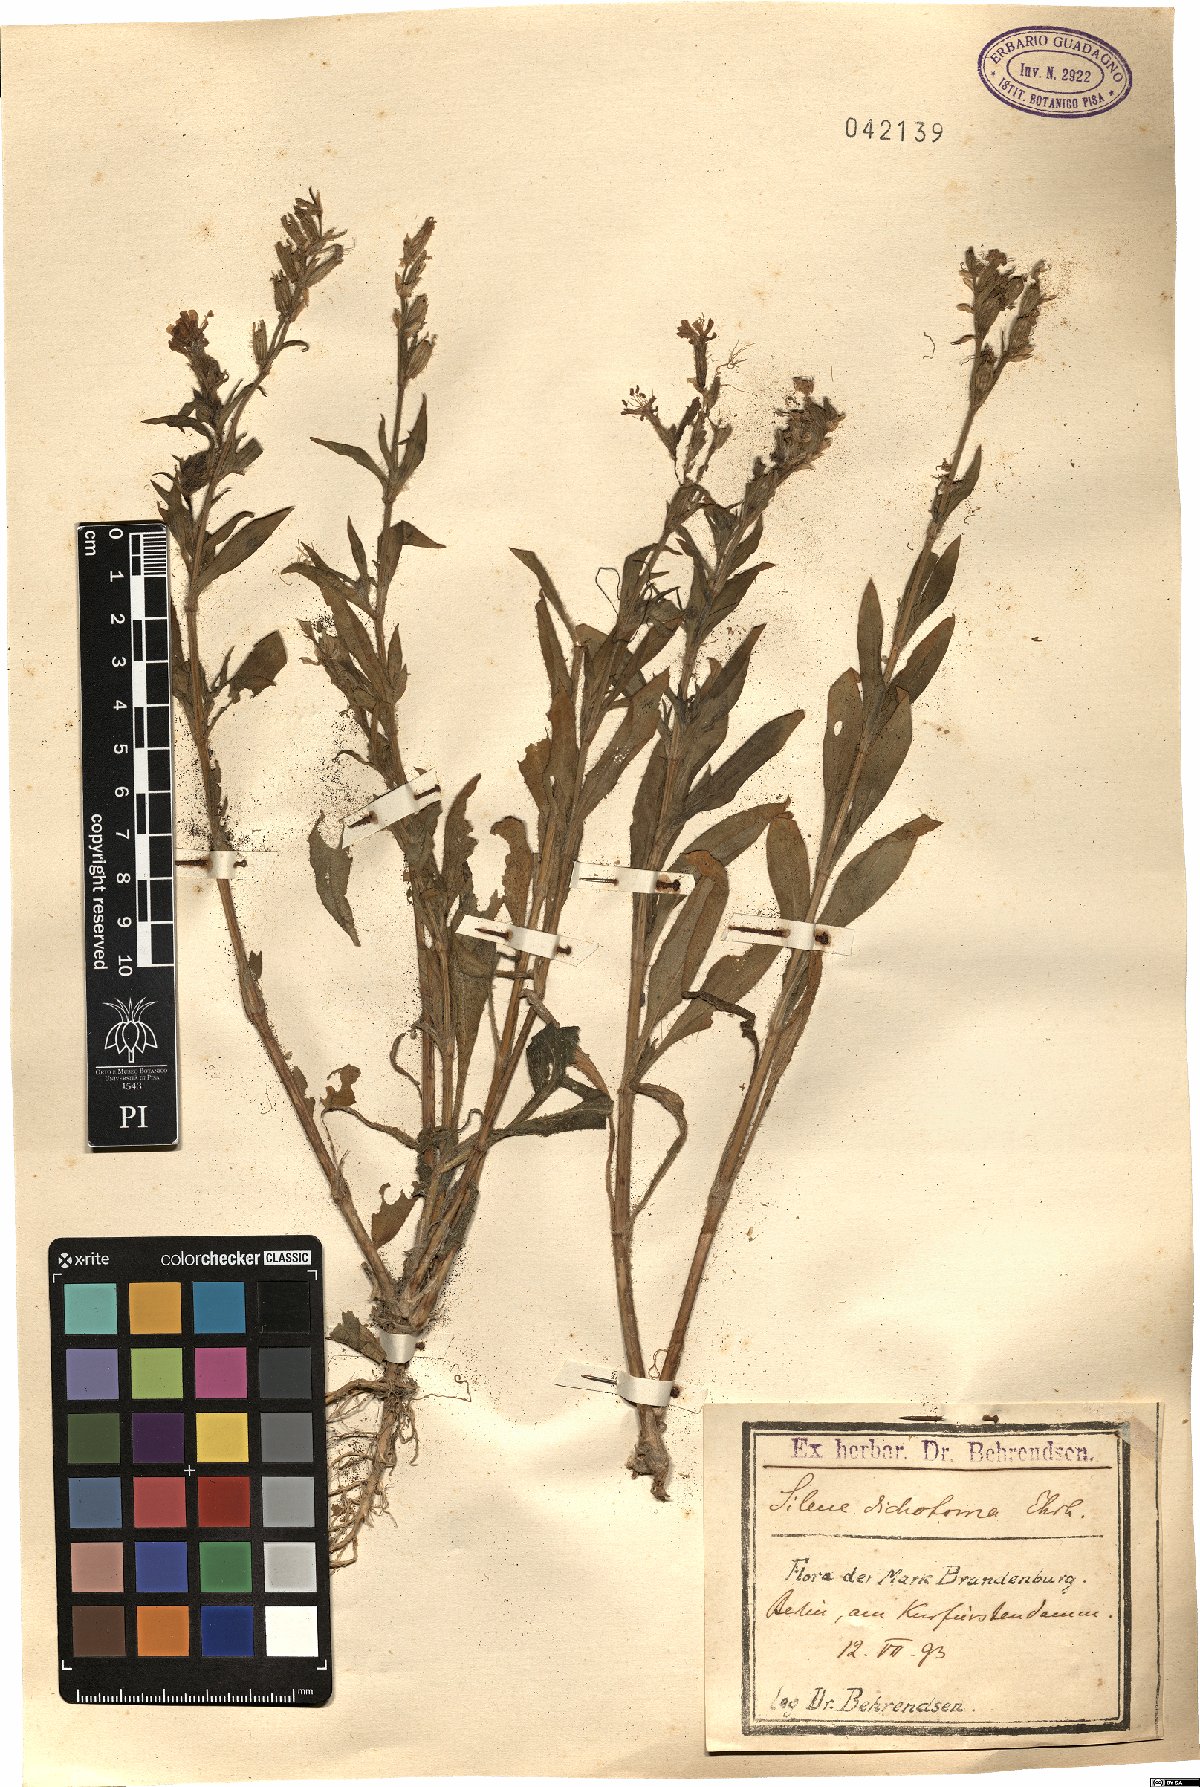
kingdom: Plantae
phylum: Tracheophyta
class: Magnoliopsida
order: Caryophyllales
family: Caryophyllaceae
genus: Silene
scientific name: Silene dichotoma
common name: Forked catchfly
